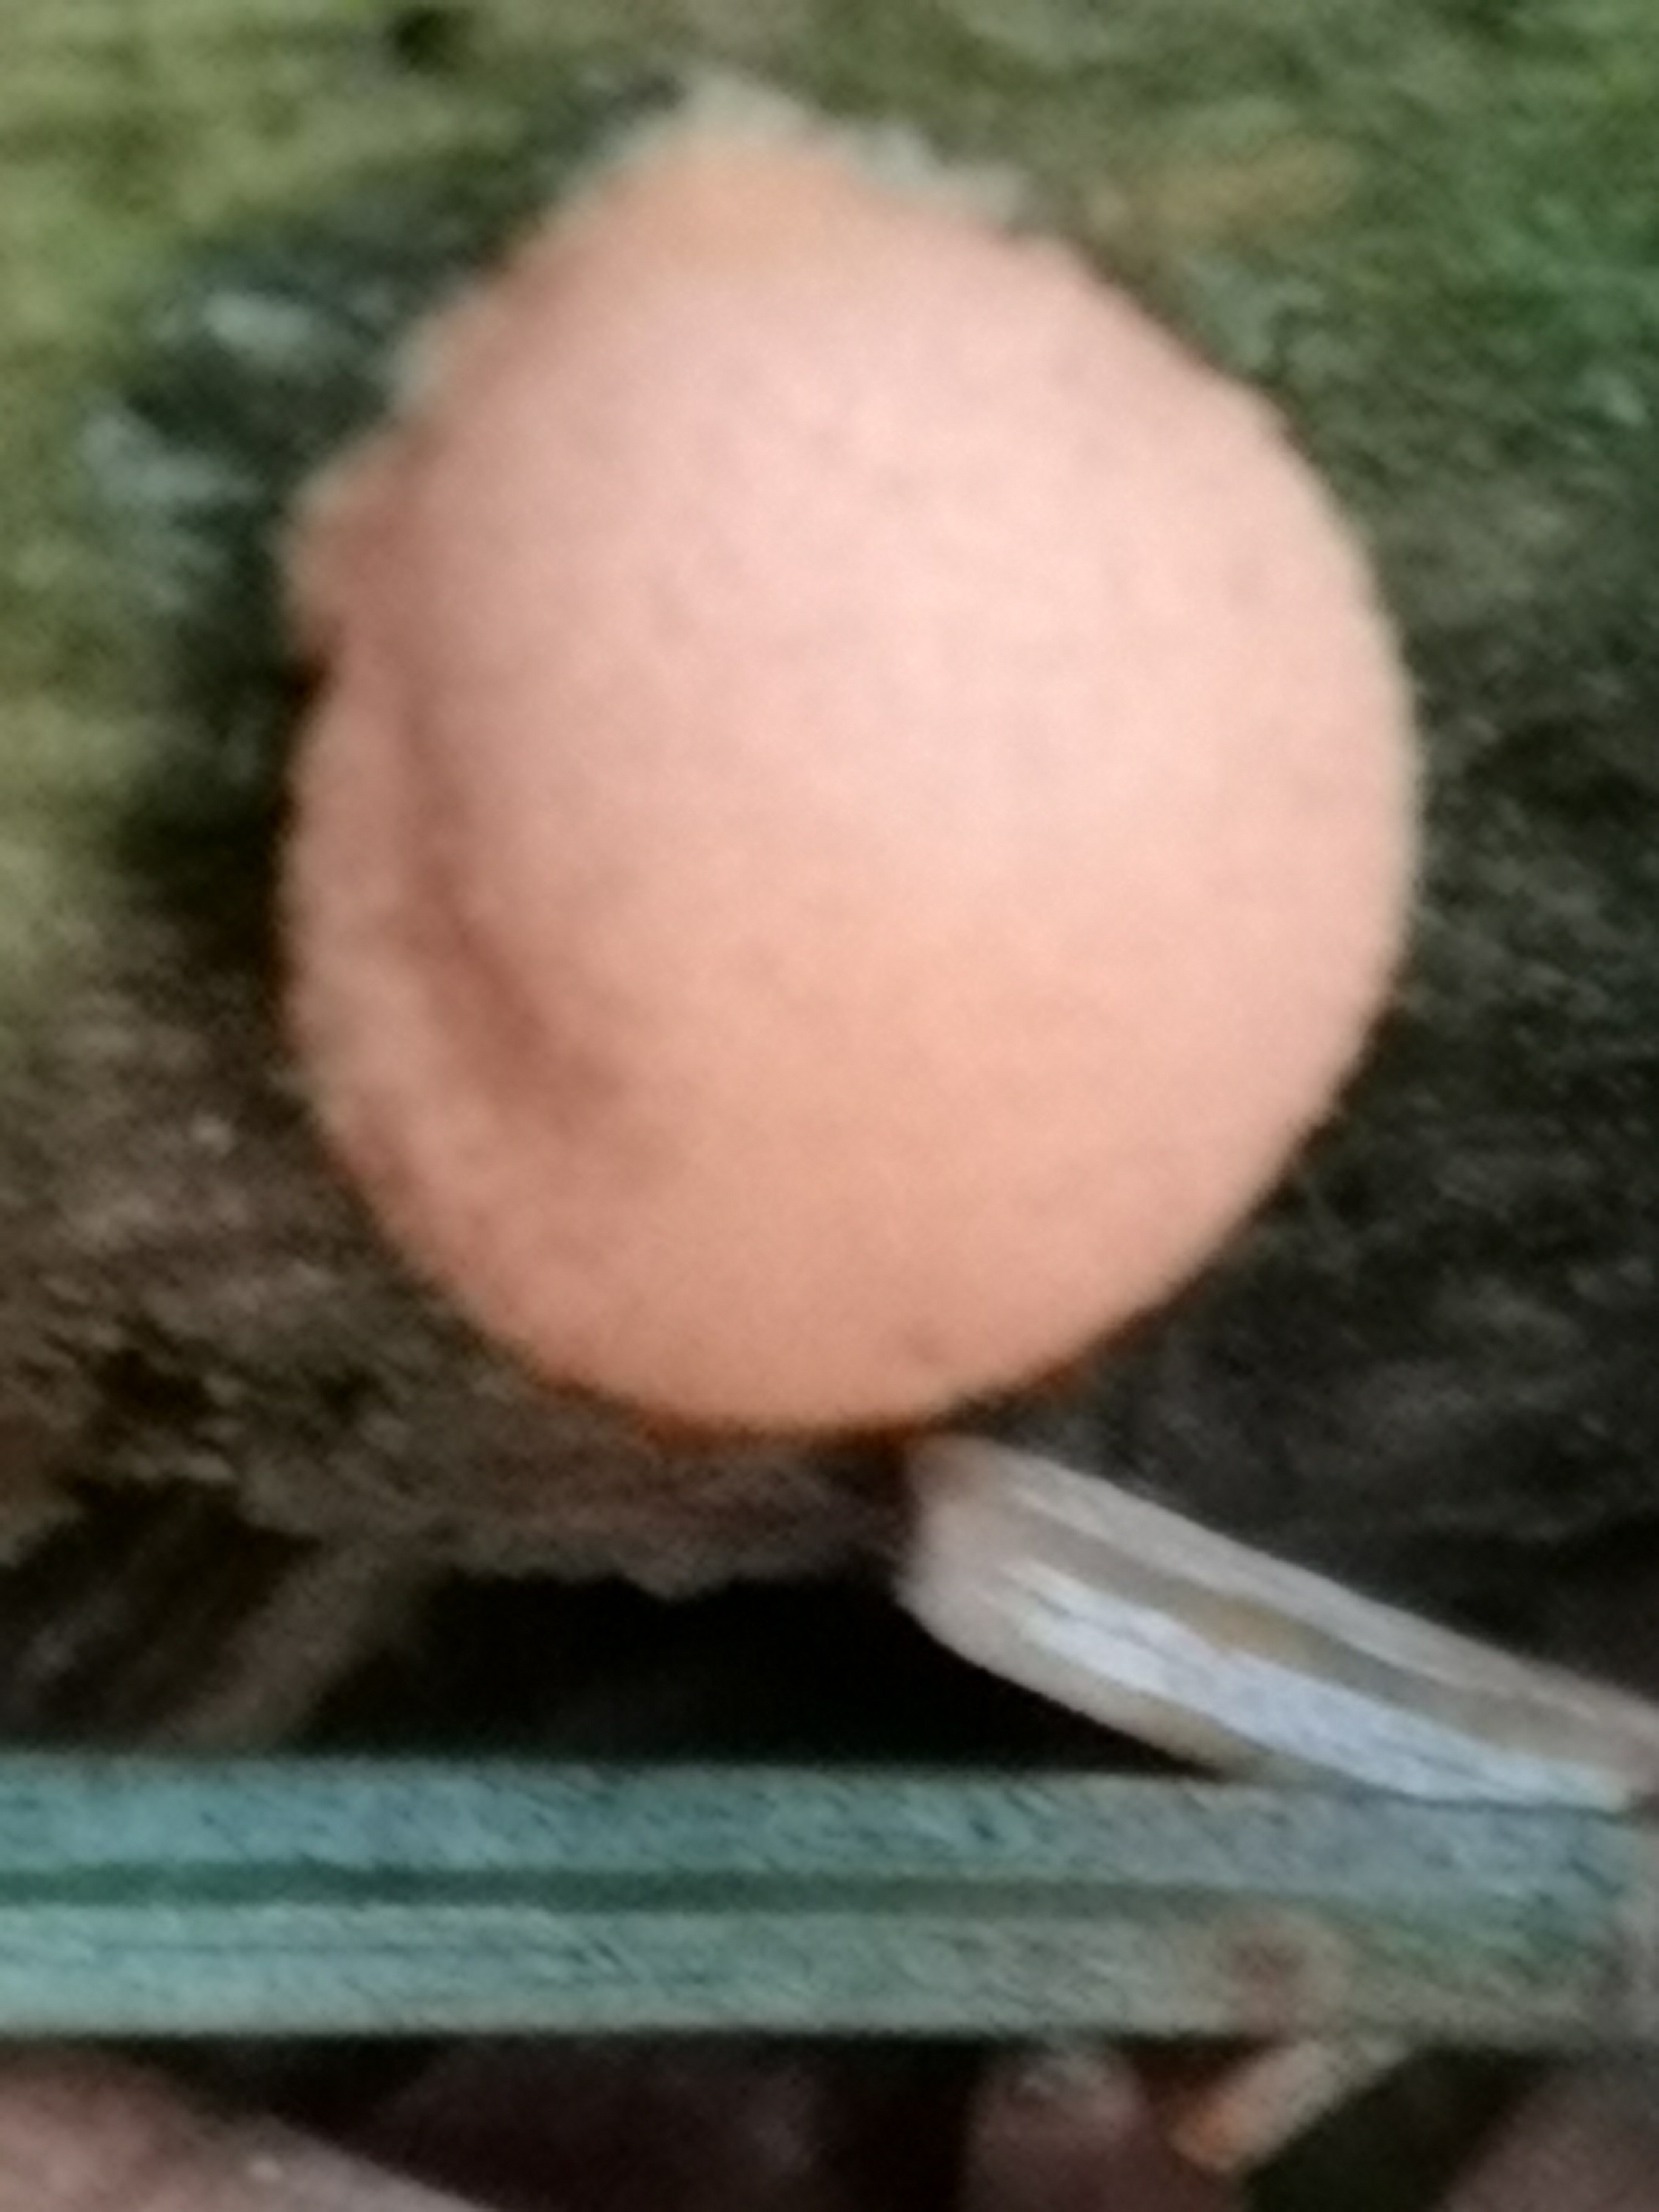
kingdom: Protozoa
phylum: Mycetozoa
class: Myxomycetes
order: Cribrariales
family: Tubiferaceae
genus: Lycogala
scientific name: Lycogala epidendrum
